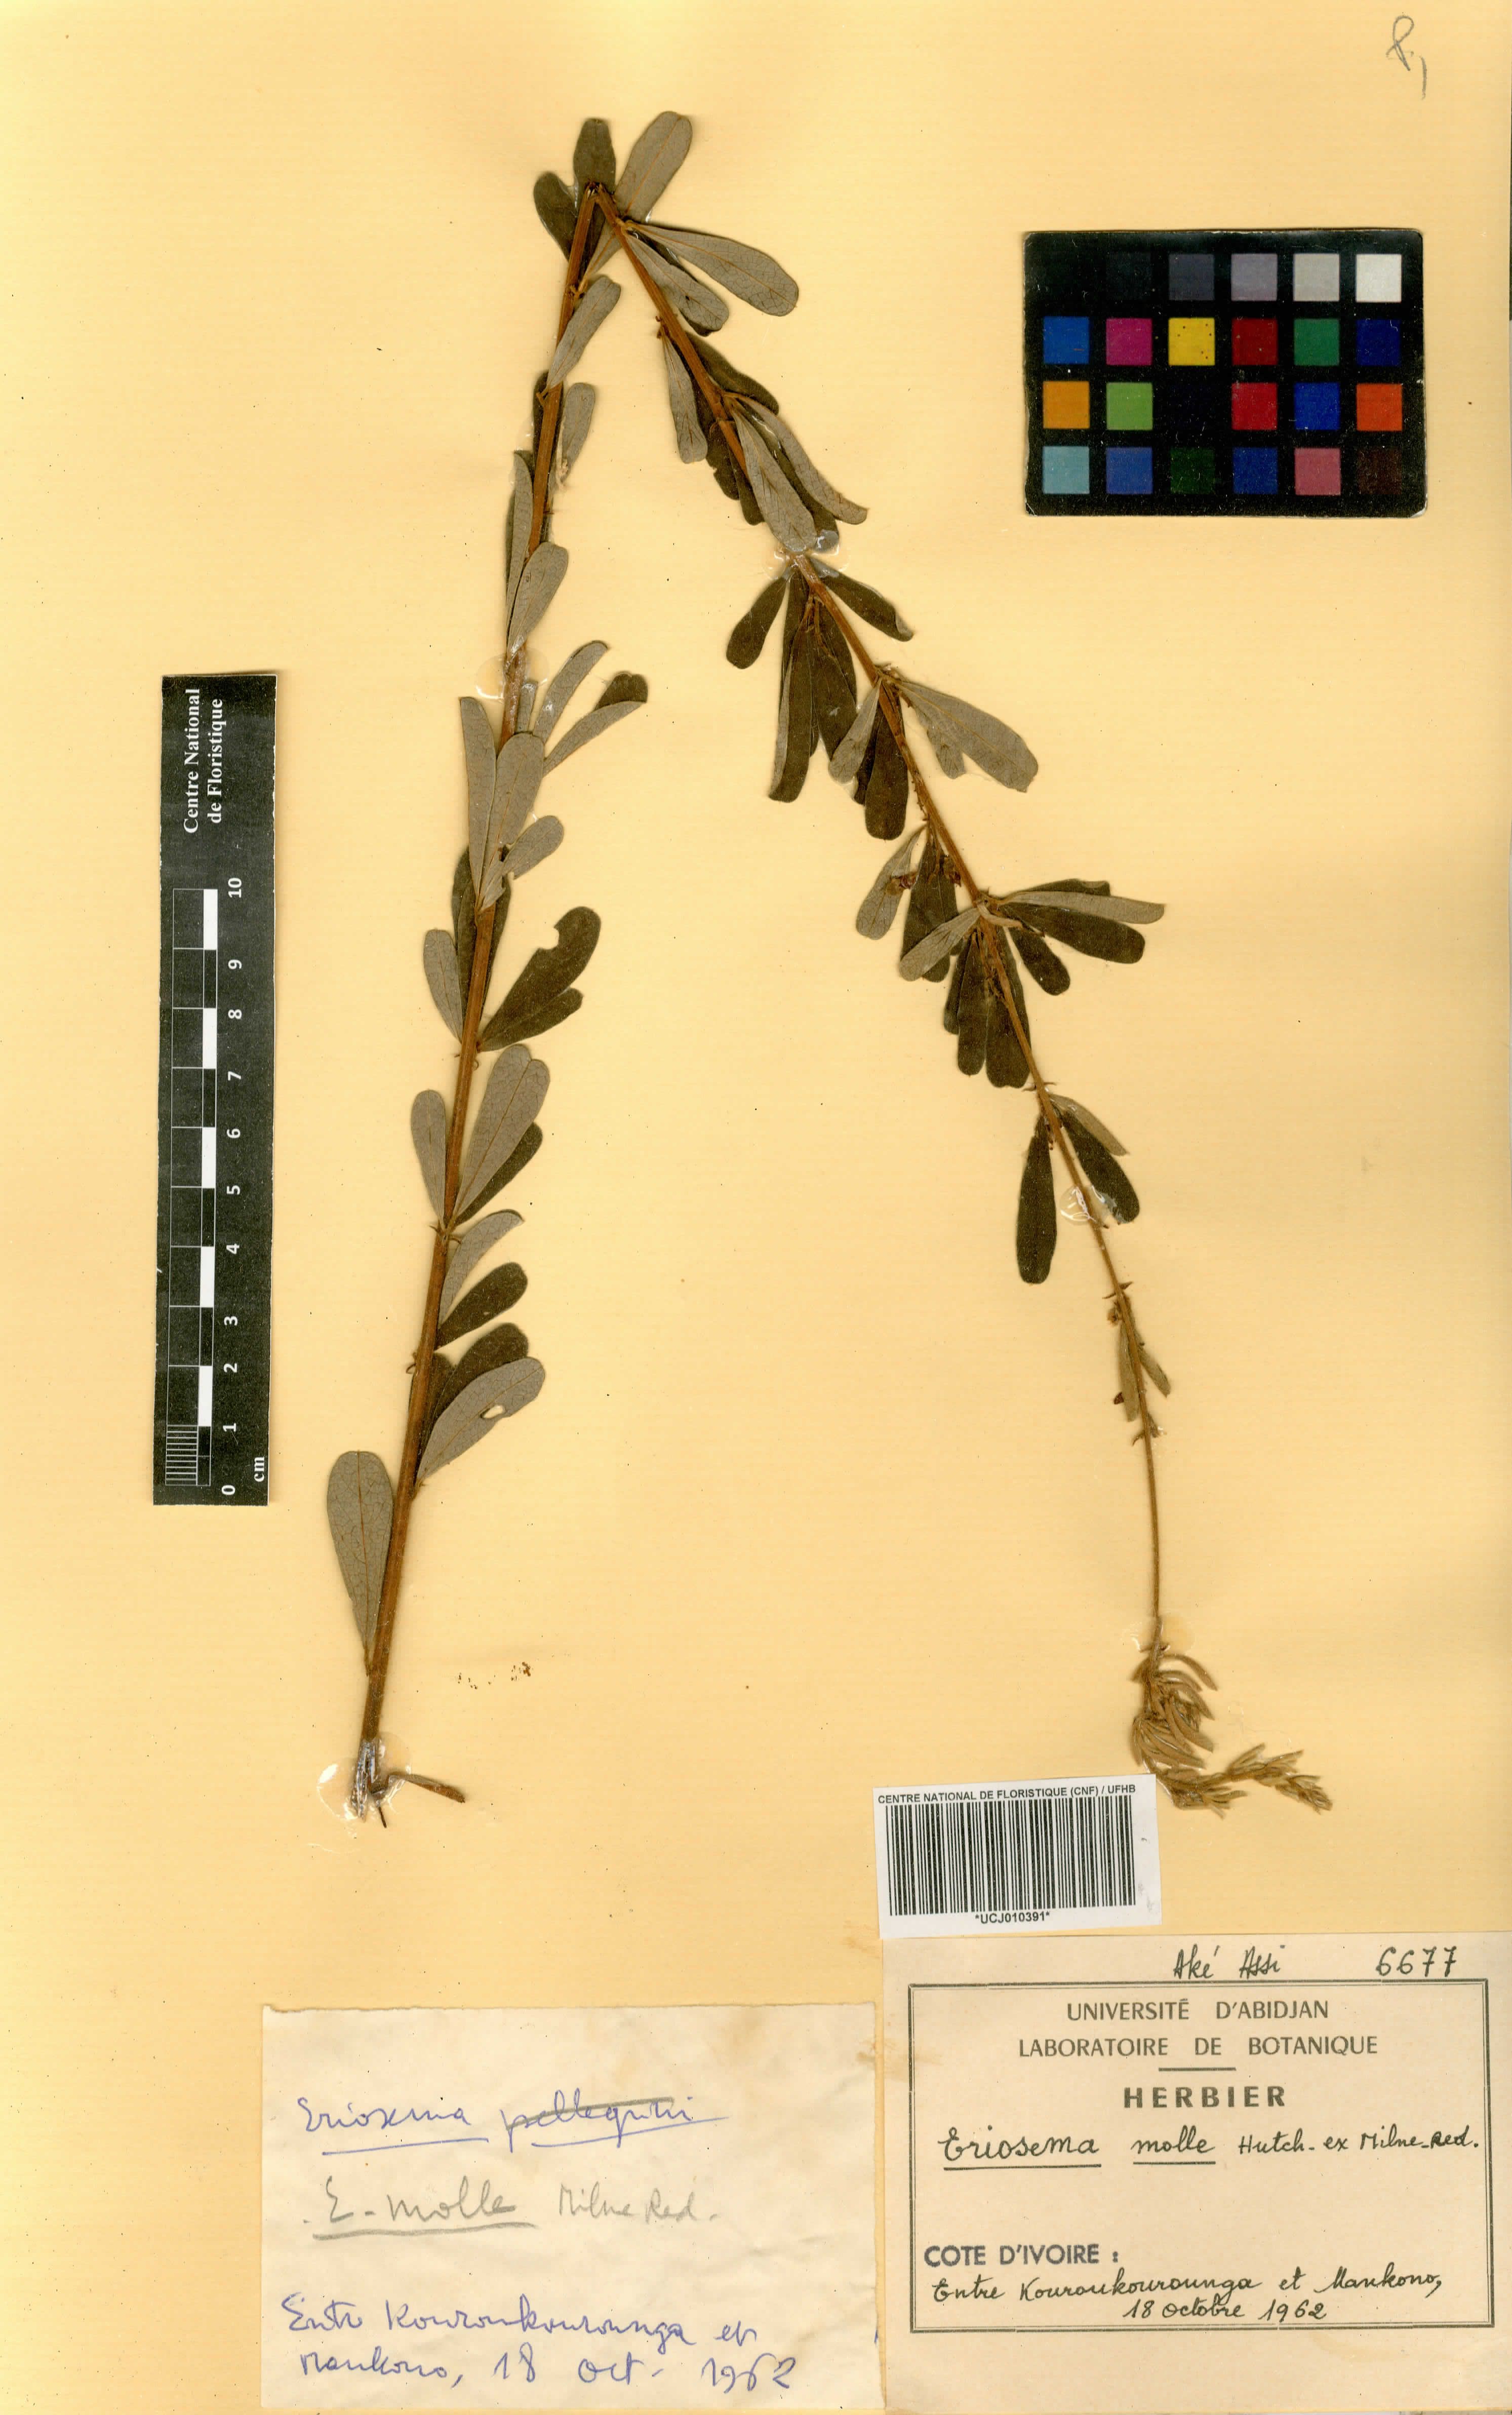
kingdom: Plantae
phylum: Tracheophyta
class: Magnoliopsida
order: Fabales
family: Fabaceae
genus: Eriosema
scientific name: Eriosema molle
